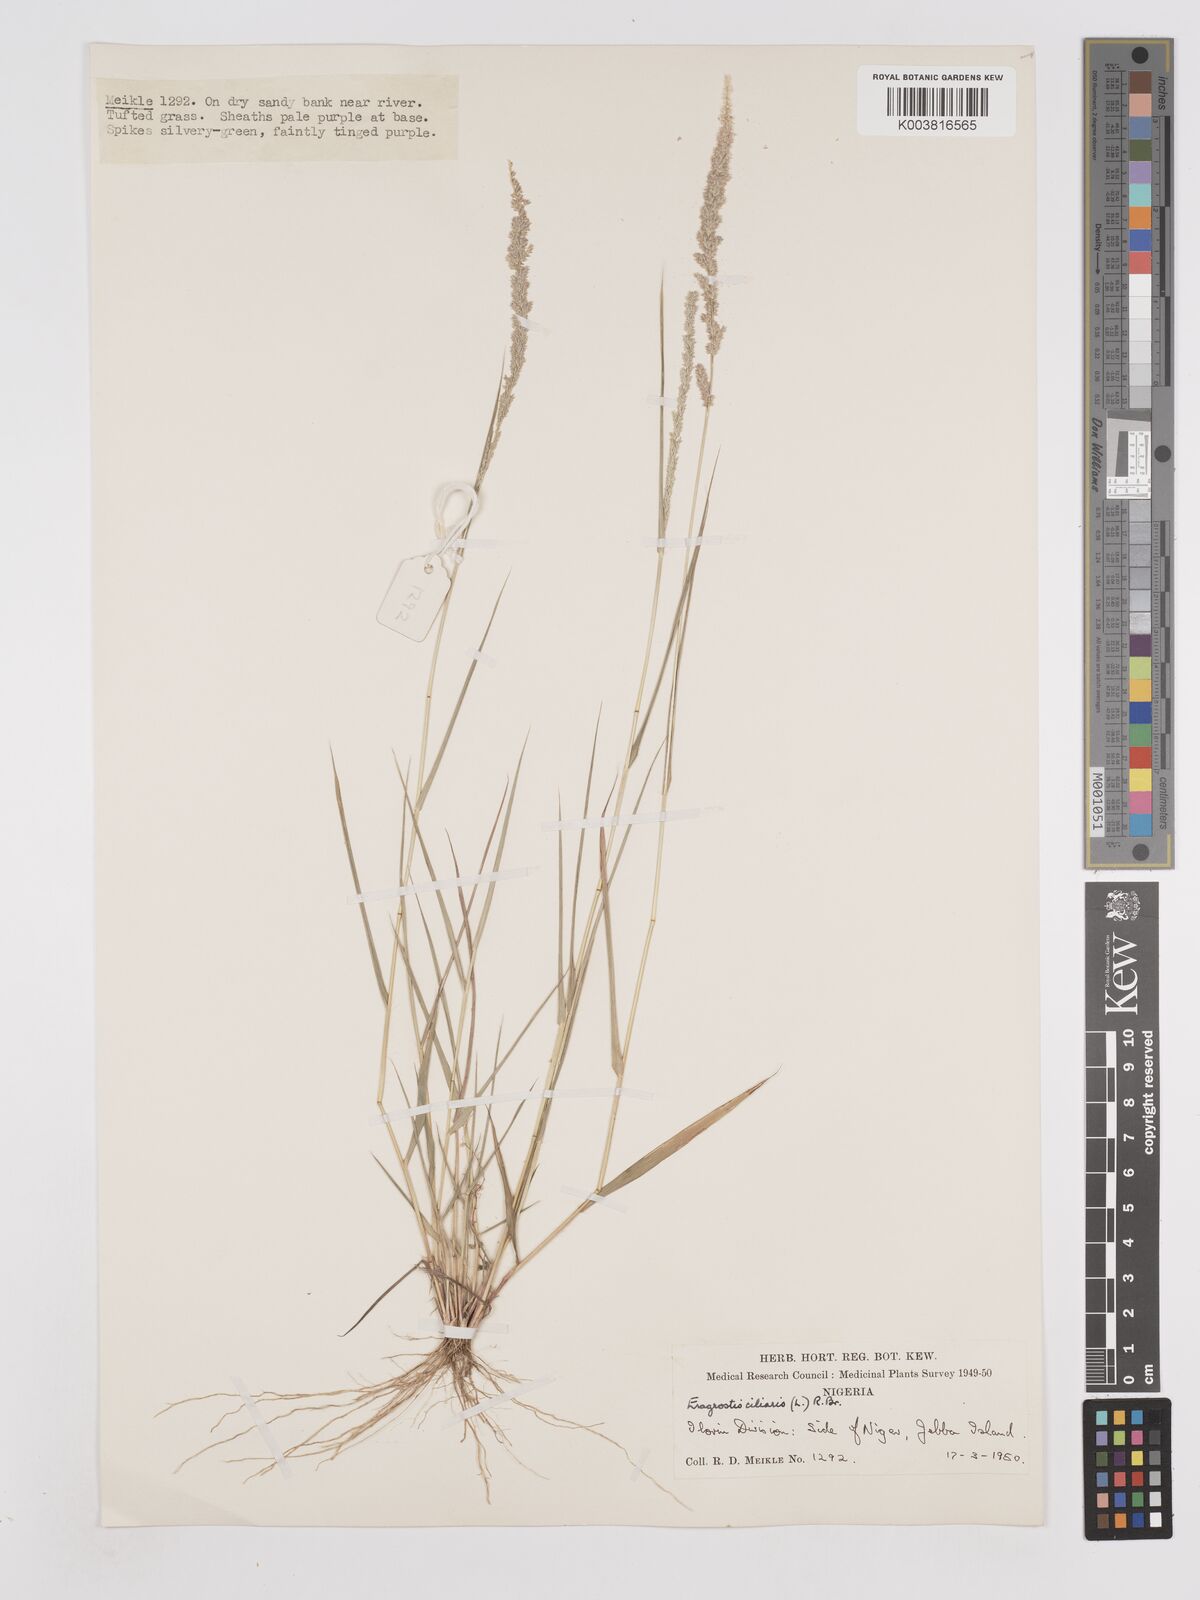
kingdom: Plantae
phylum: Tracheophyta
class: Liliopsida
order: Poales
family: Poaceae
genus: Eragrostis
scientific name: Eragrostis ciliaris
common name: Gophertail lovegrass
